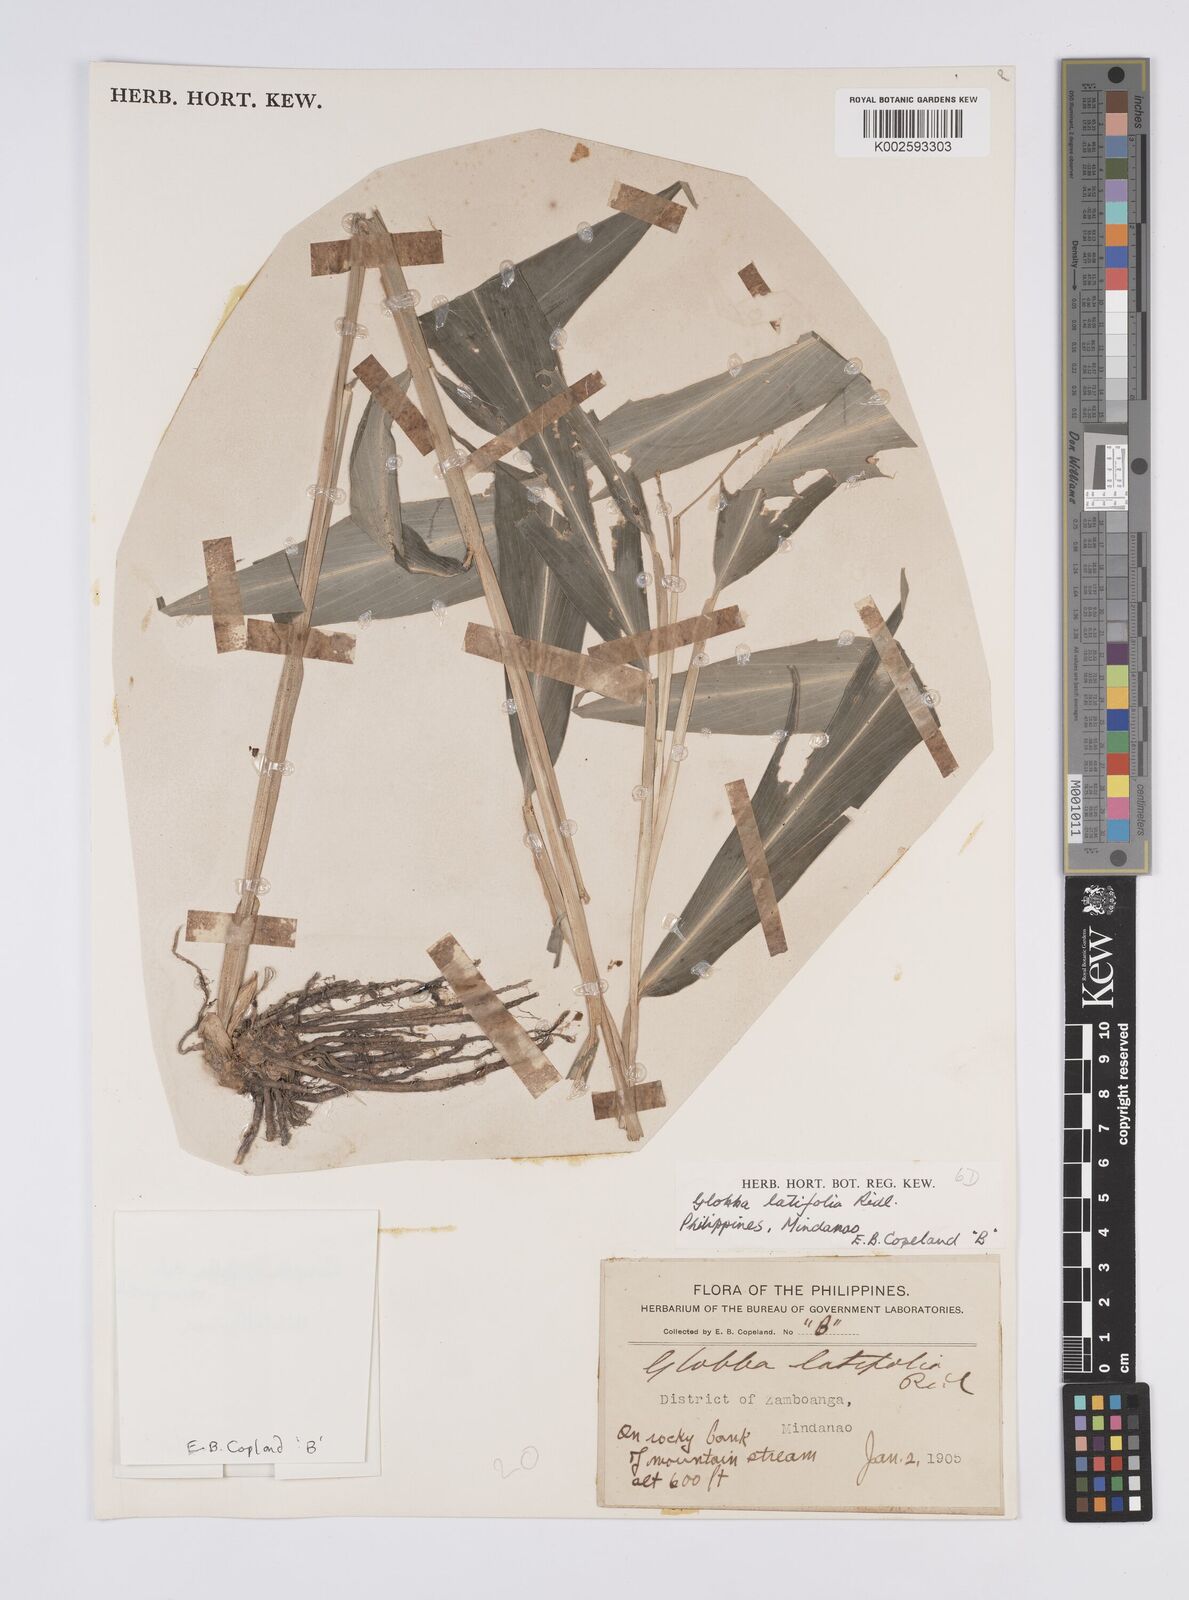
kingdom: Plantae
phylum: Tracheophyta
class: Liliopsida
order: Zingiberales
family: Zingiberaceae
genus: Globba
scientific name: Globba latifolia
